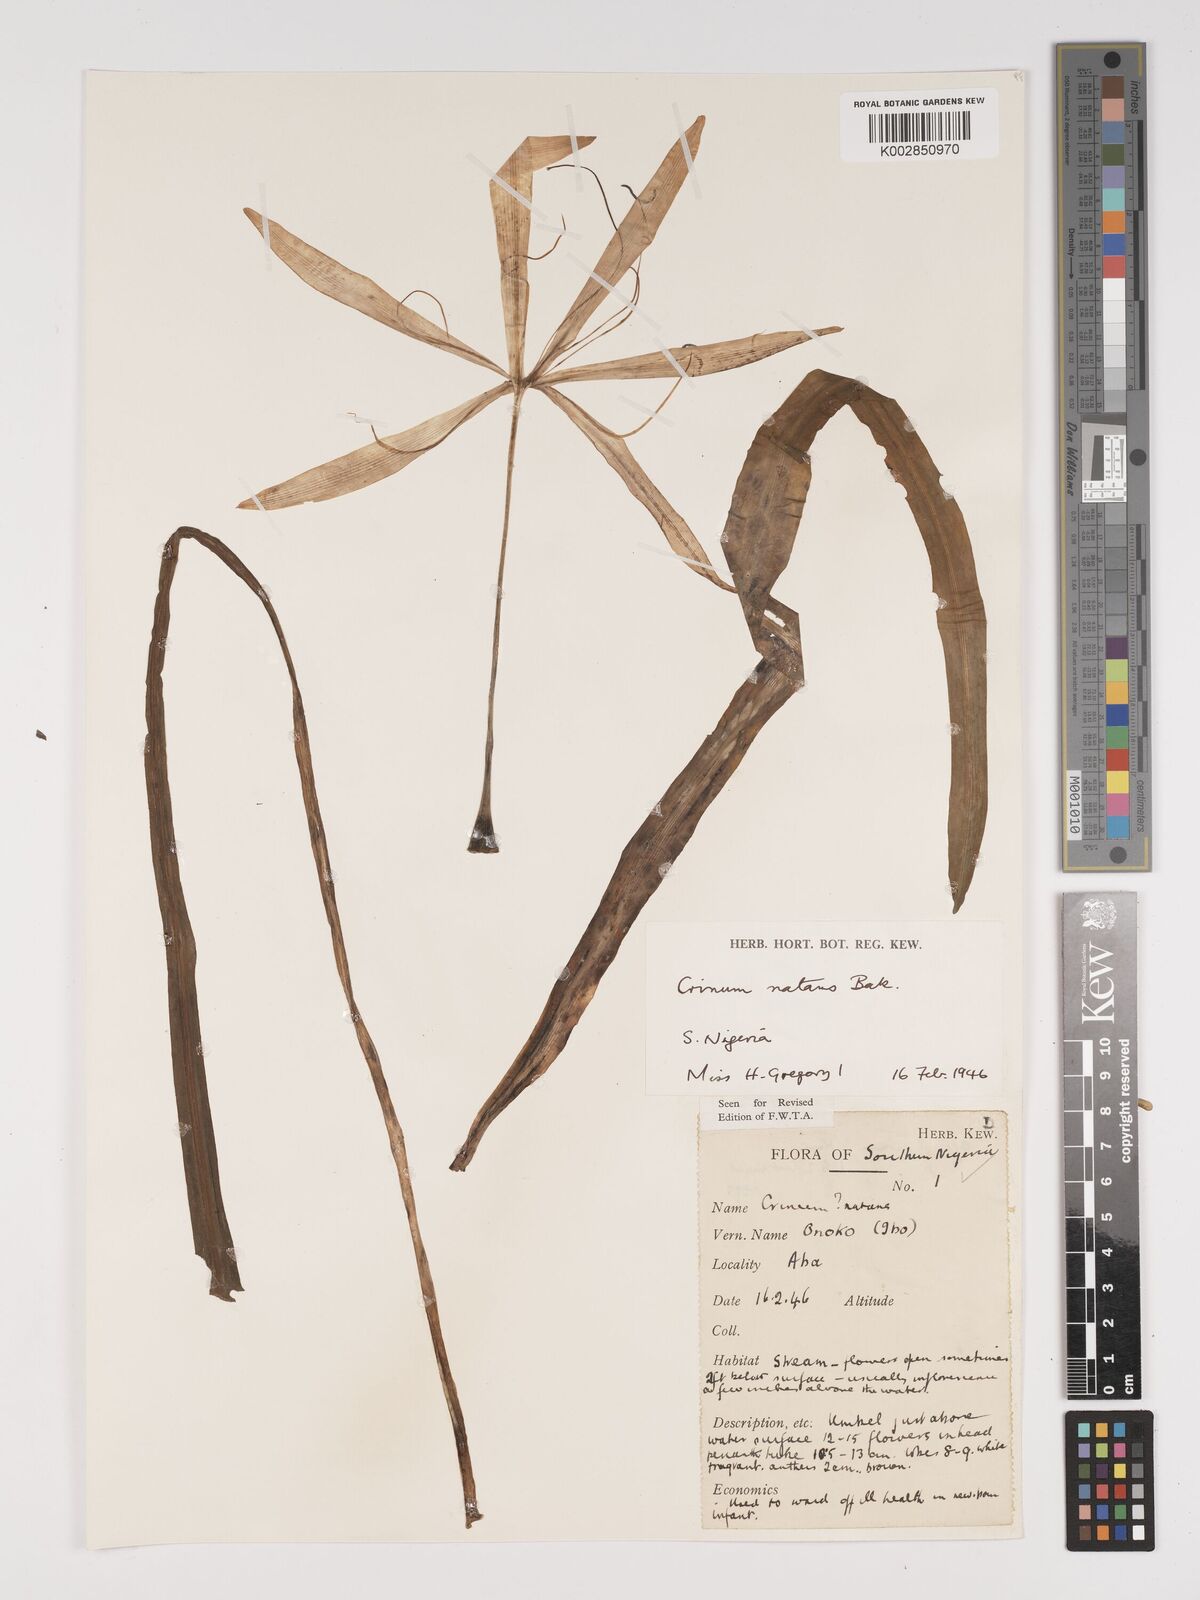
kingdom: Plantae
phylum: Tracheophyta
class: Liliopsida
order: Asparagales
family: Amaryllidaceae
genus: Crinum
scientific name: Crinum natans
